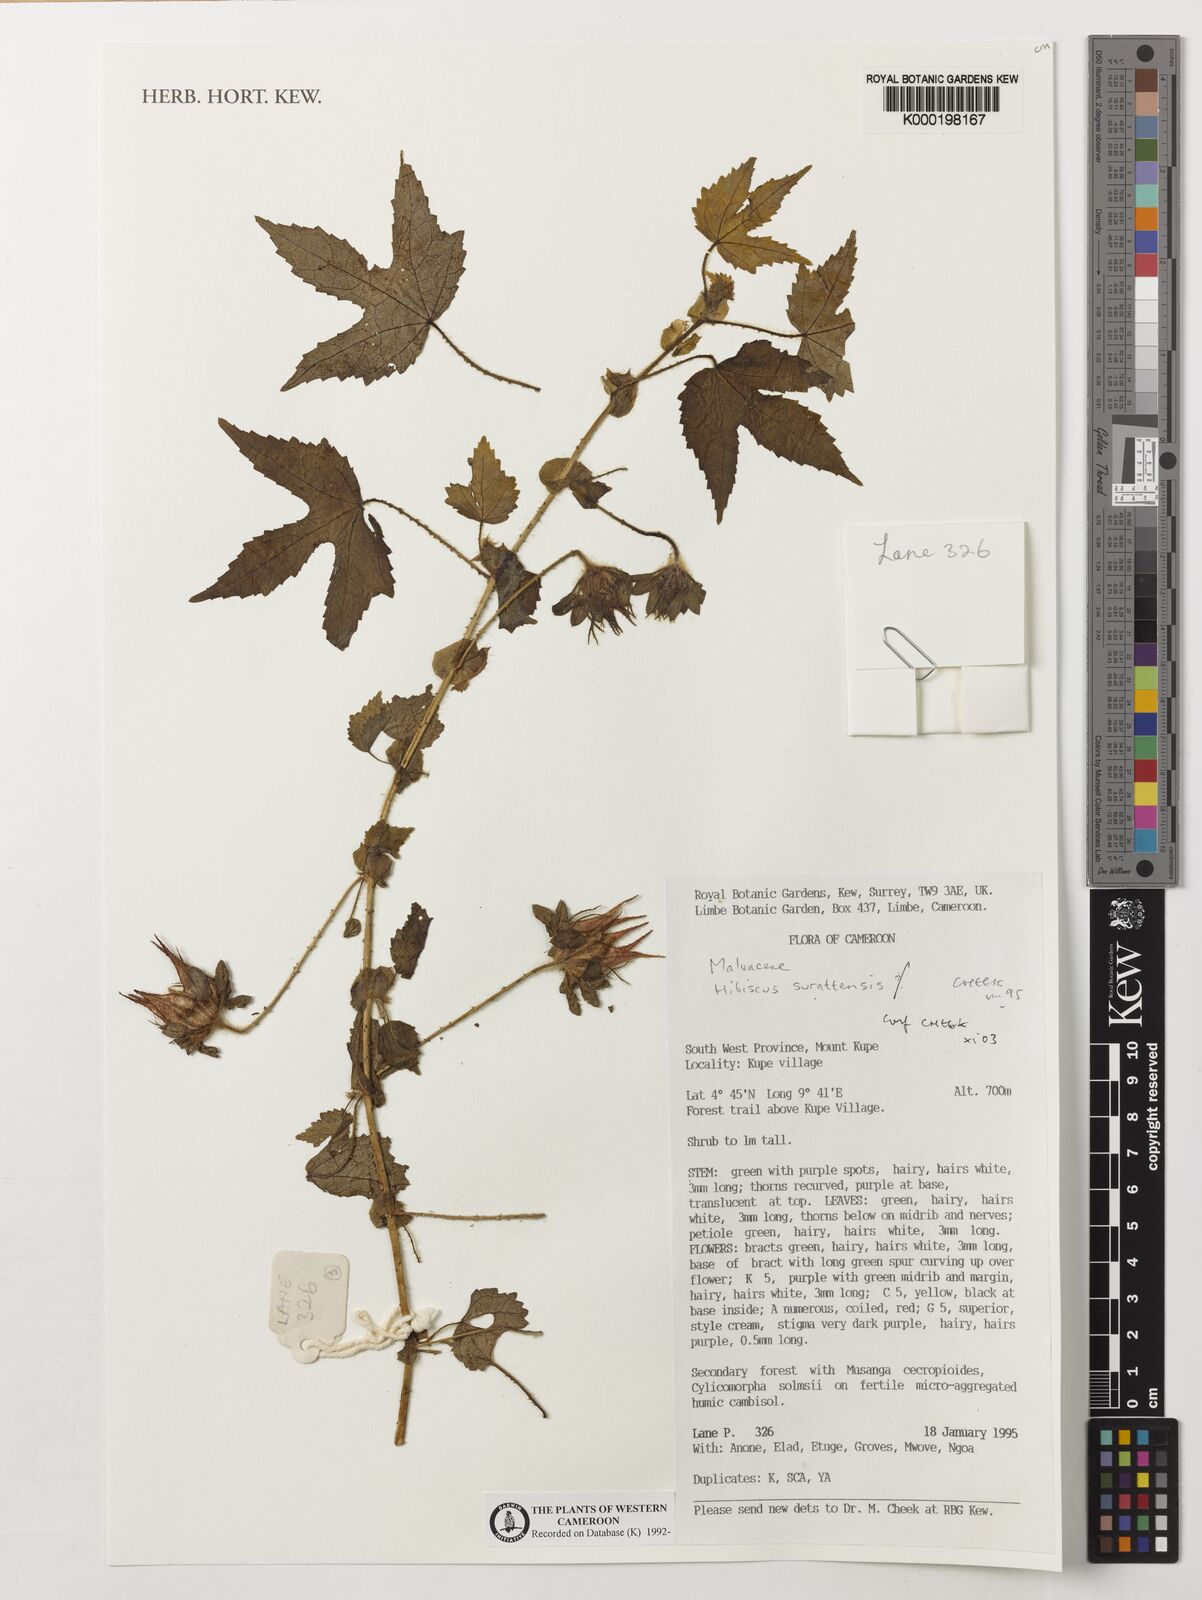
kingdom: Plantae
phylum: Tracheophyta
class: Magnoliopsida
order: Malvales
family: Malvaceae
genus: Hibiscus
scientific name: Hibiscus surattensis
